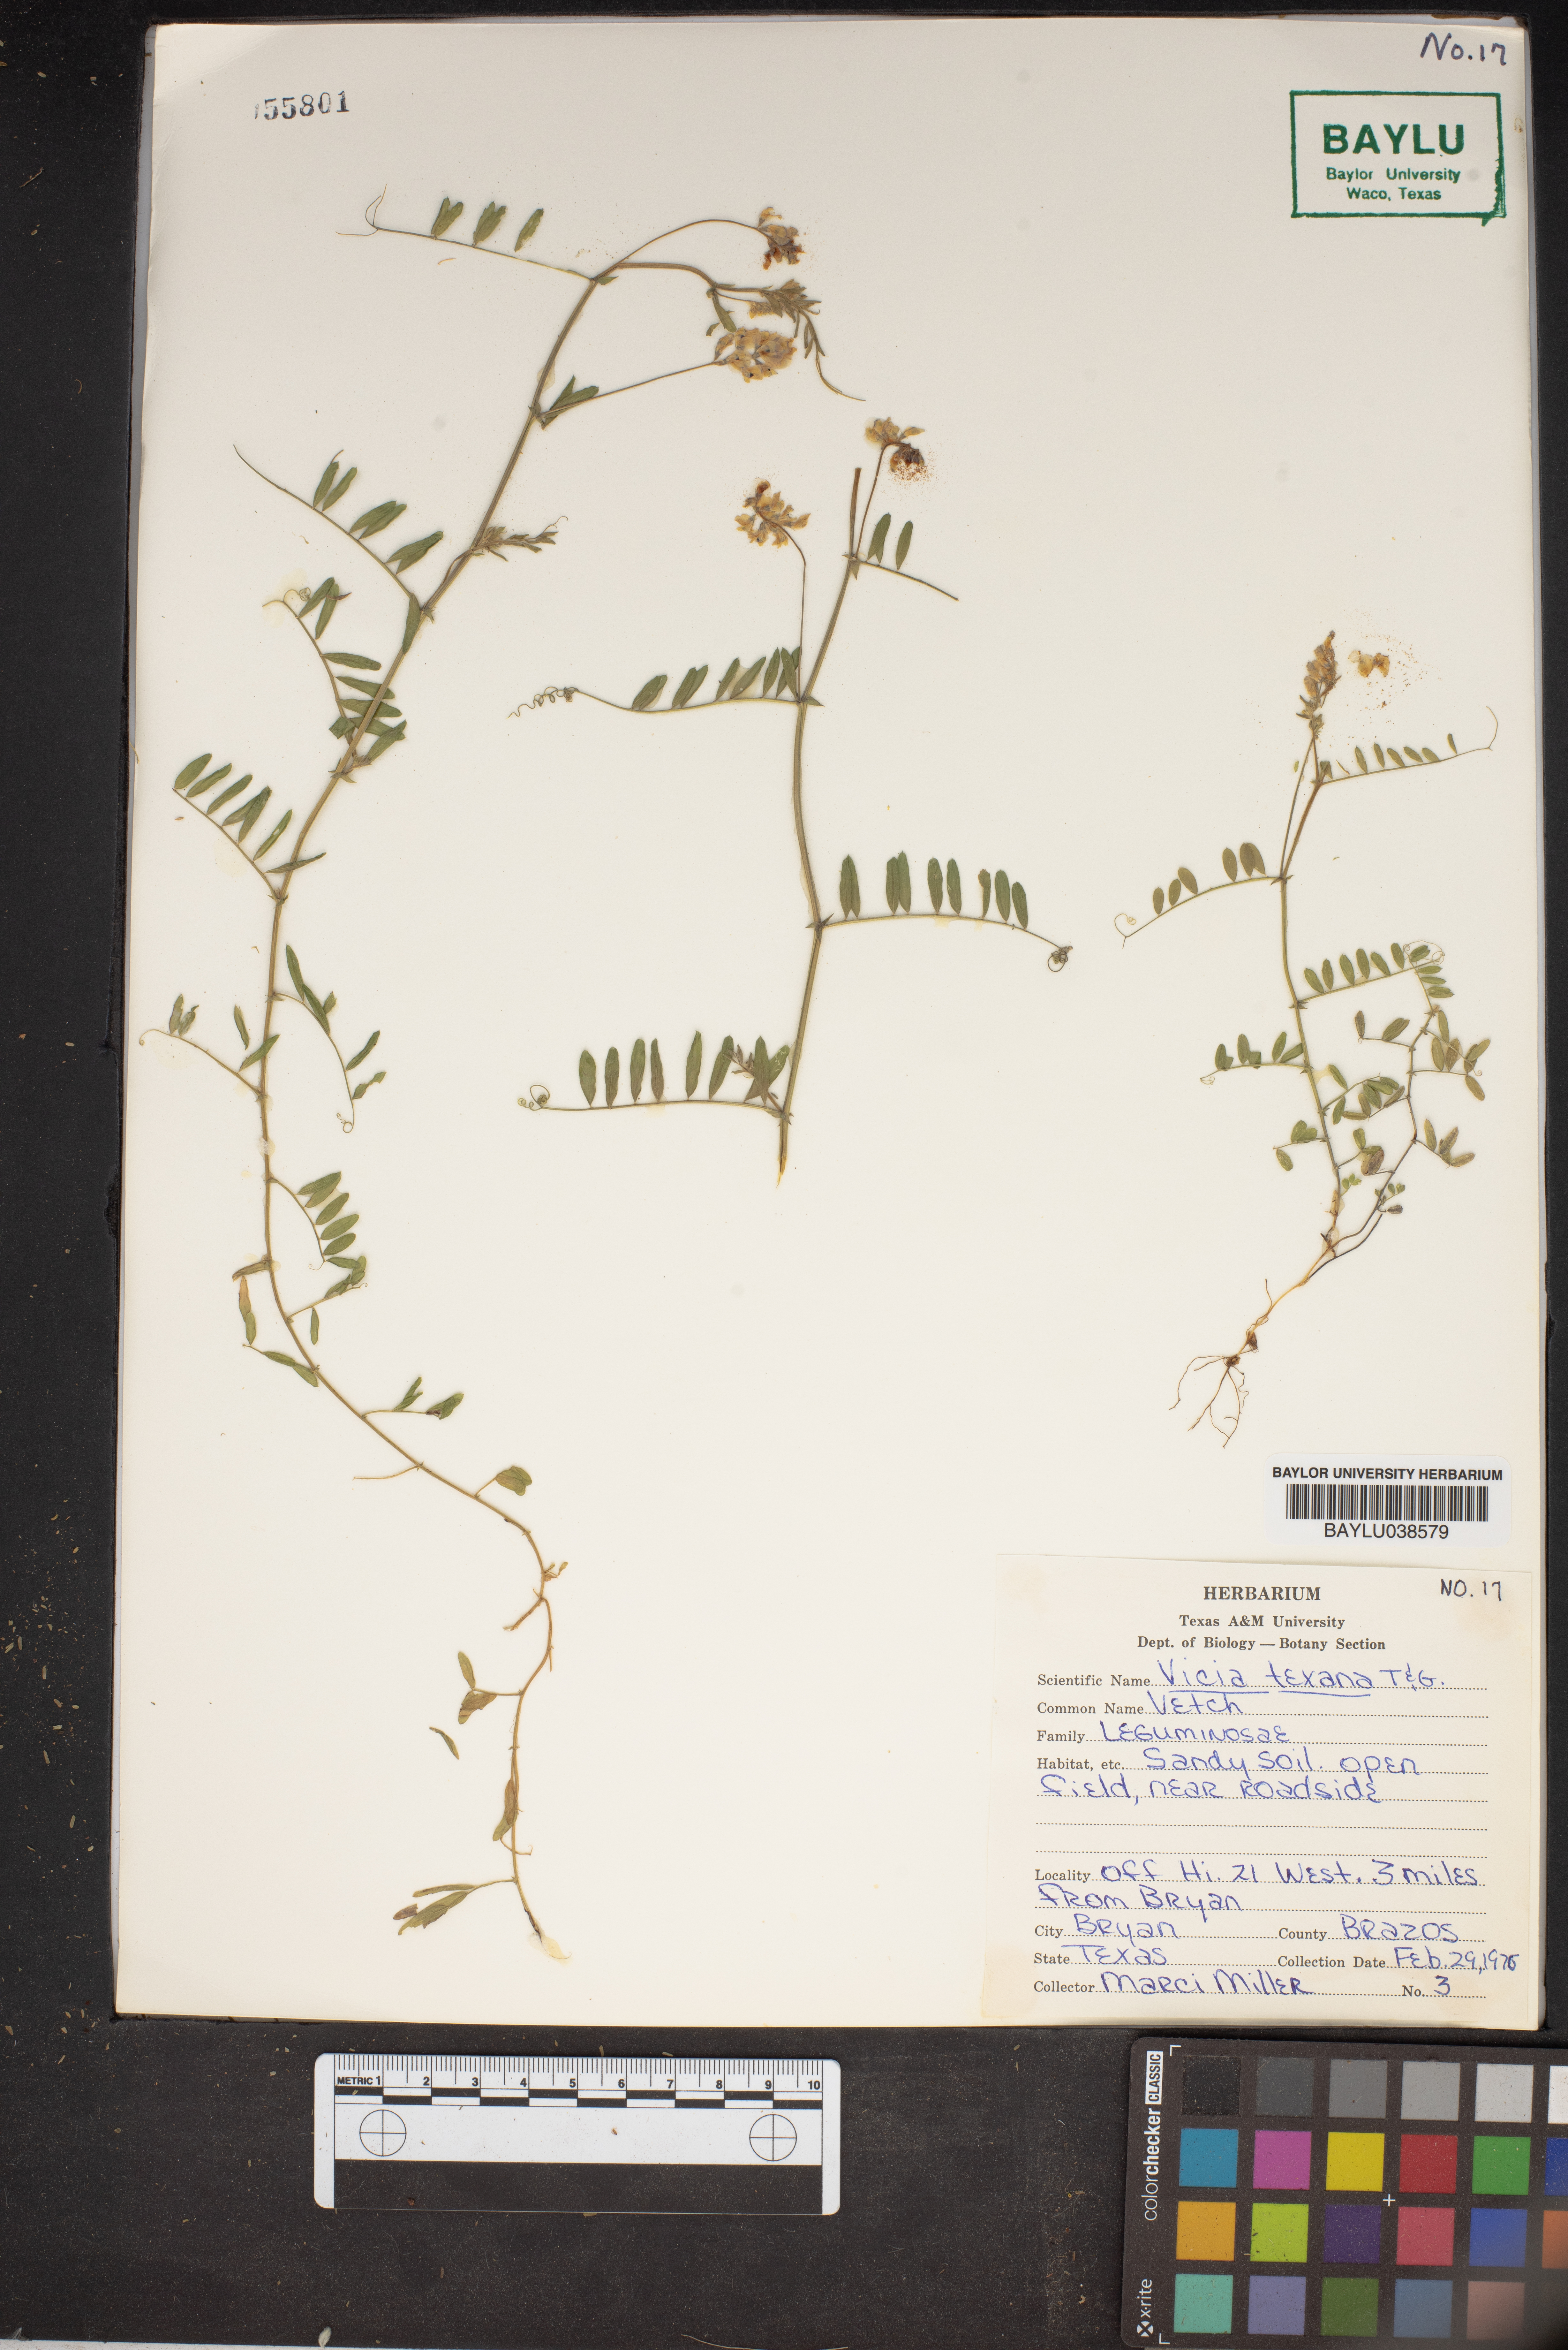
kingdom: Plantae
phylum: Tracheophyta
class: Magnoliopsida
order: Fabales
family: Fabaceae
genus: Vicia
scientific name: Vicia ludoviciana
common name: Louisiana vetch
